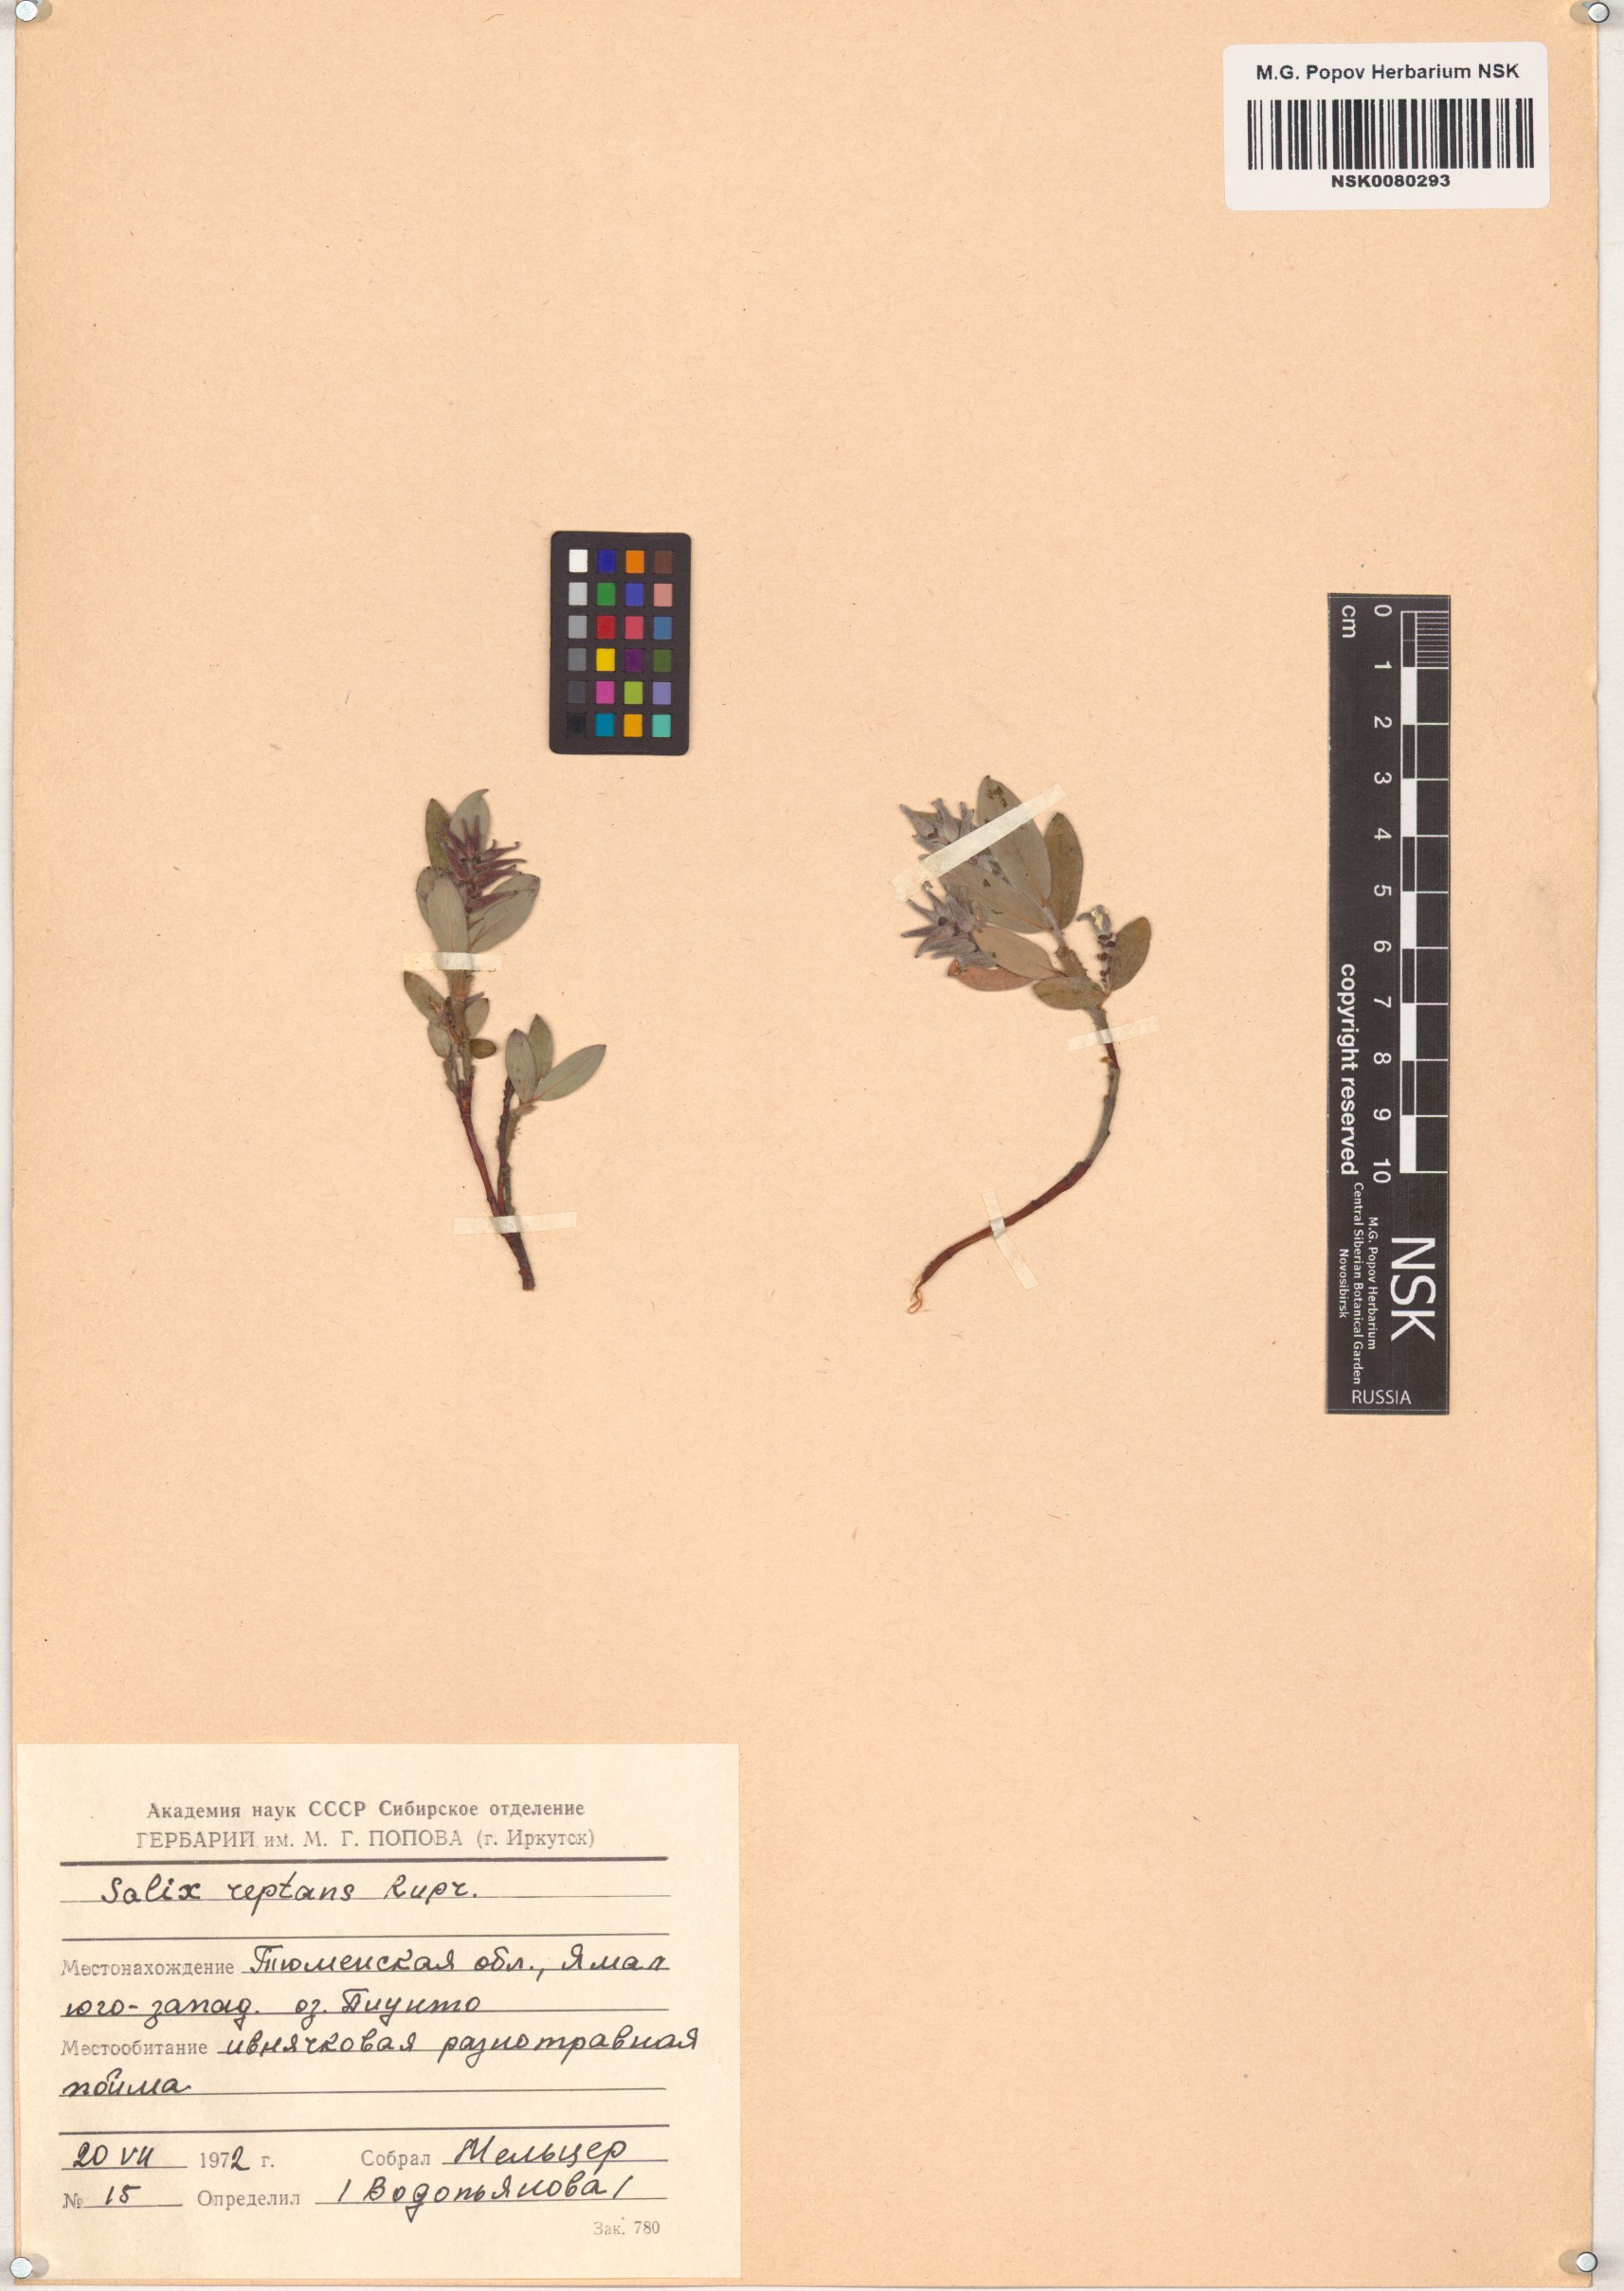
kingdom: Plantae
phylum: Tracheophyta
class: Magnoliopsida
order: Malpighiales
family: Salicaceae
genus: Salix
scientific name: Salix reptans
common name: Arctic creeping willow
